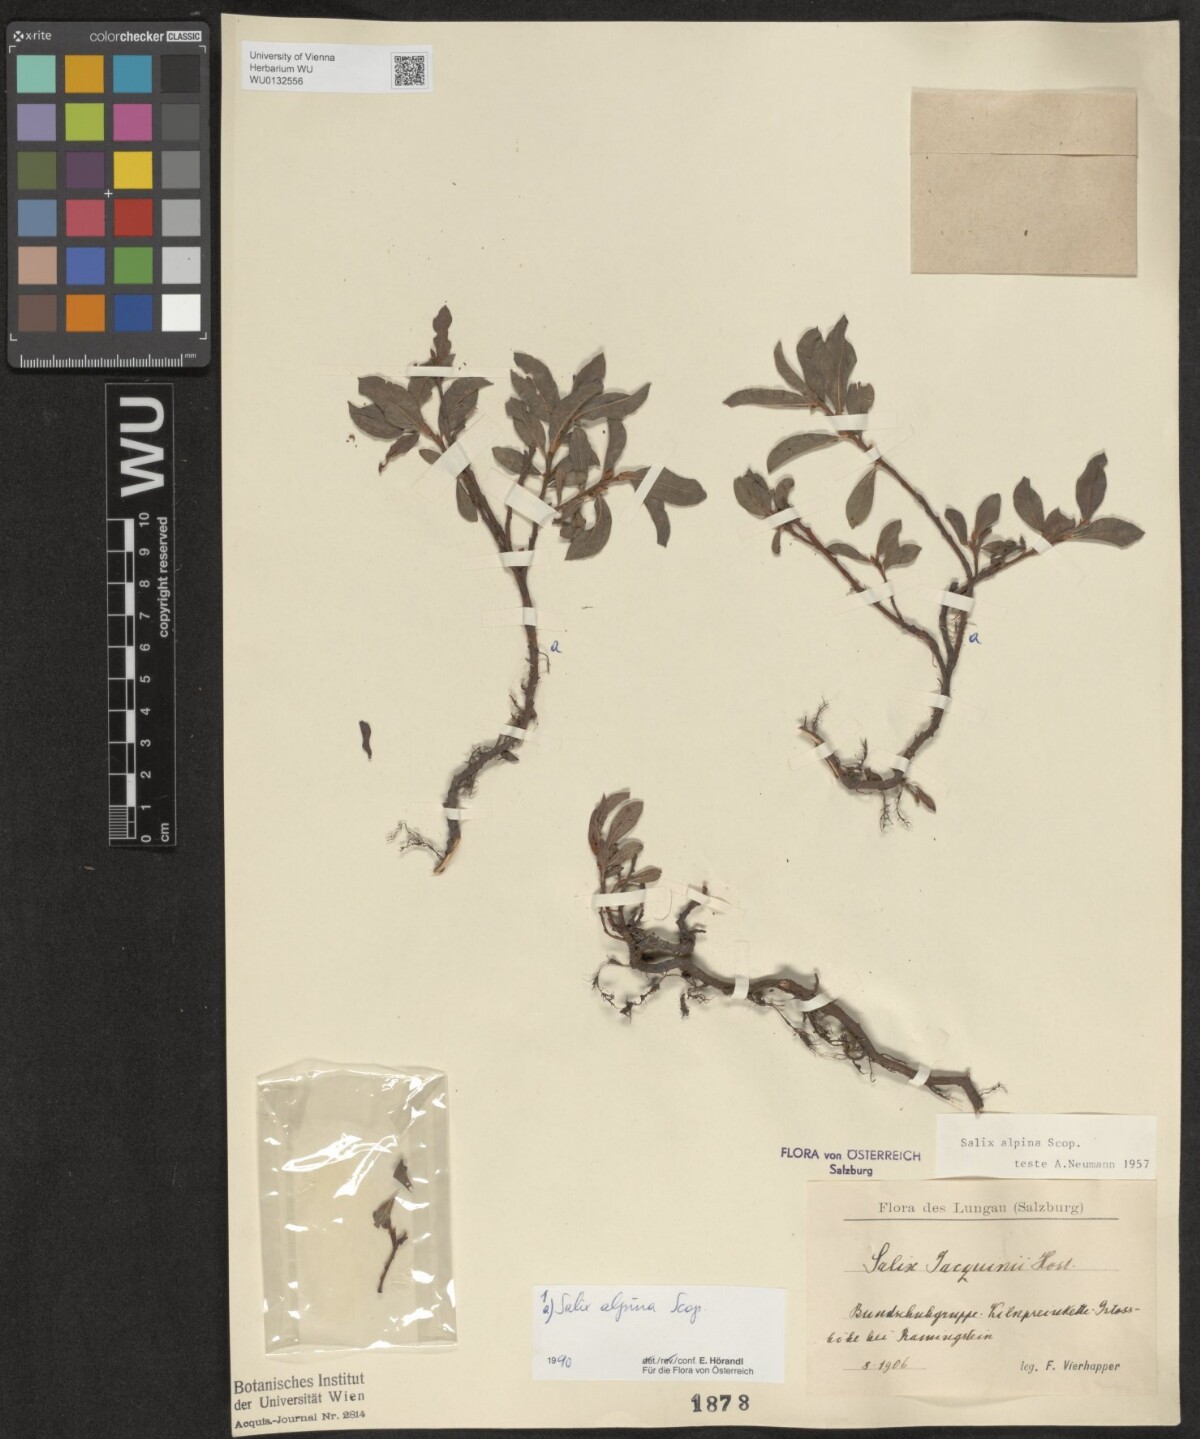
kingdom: Plantae
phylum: Tracheophyta
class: Magnoliopsida
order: Malpighiales
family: Salicaceae
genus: Salix
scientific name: Salix alpina
